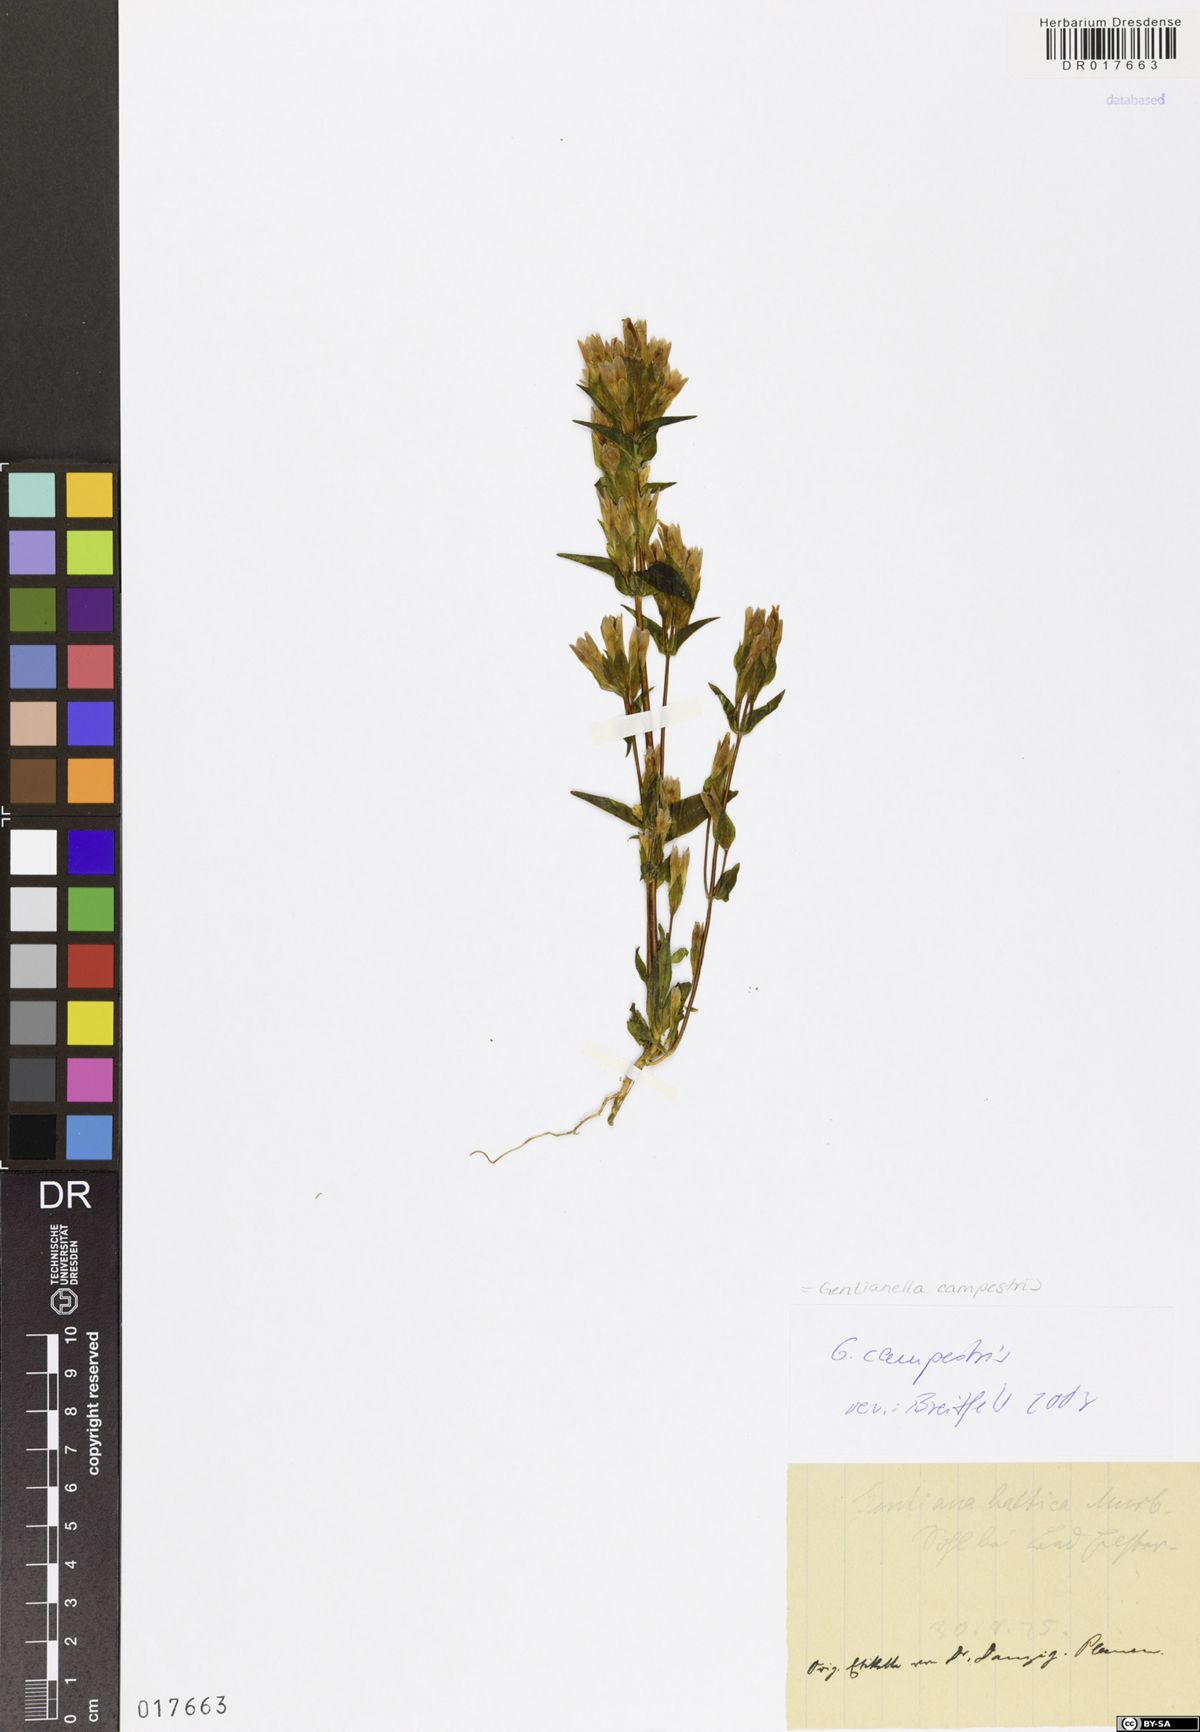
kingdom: Plantae
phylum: Tracheophyta
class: Magnoliopsida
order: Gentianales
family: Gentianaceae
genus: Gentianella
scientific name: Gentianella campestris
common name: Field gentian
